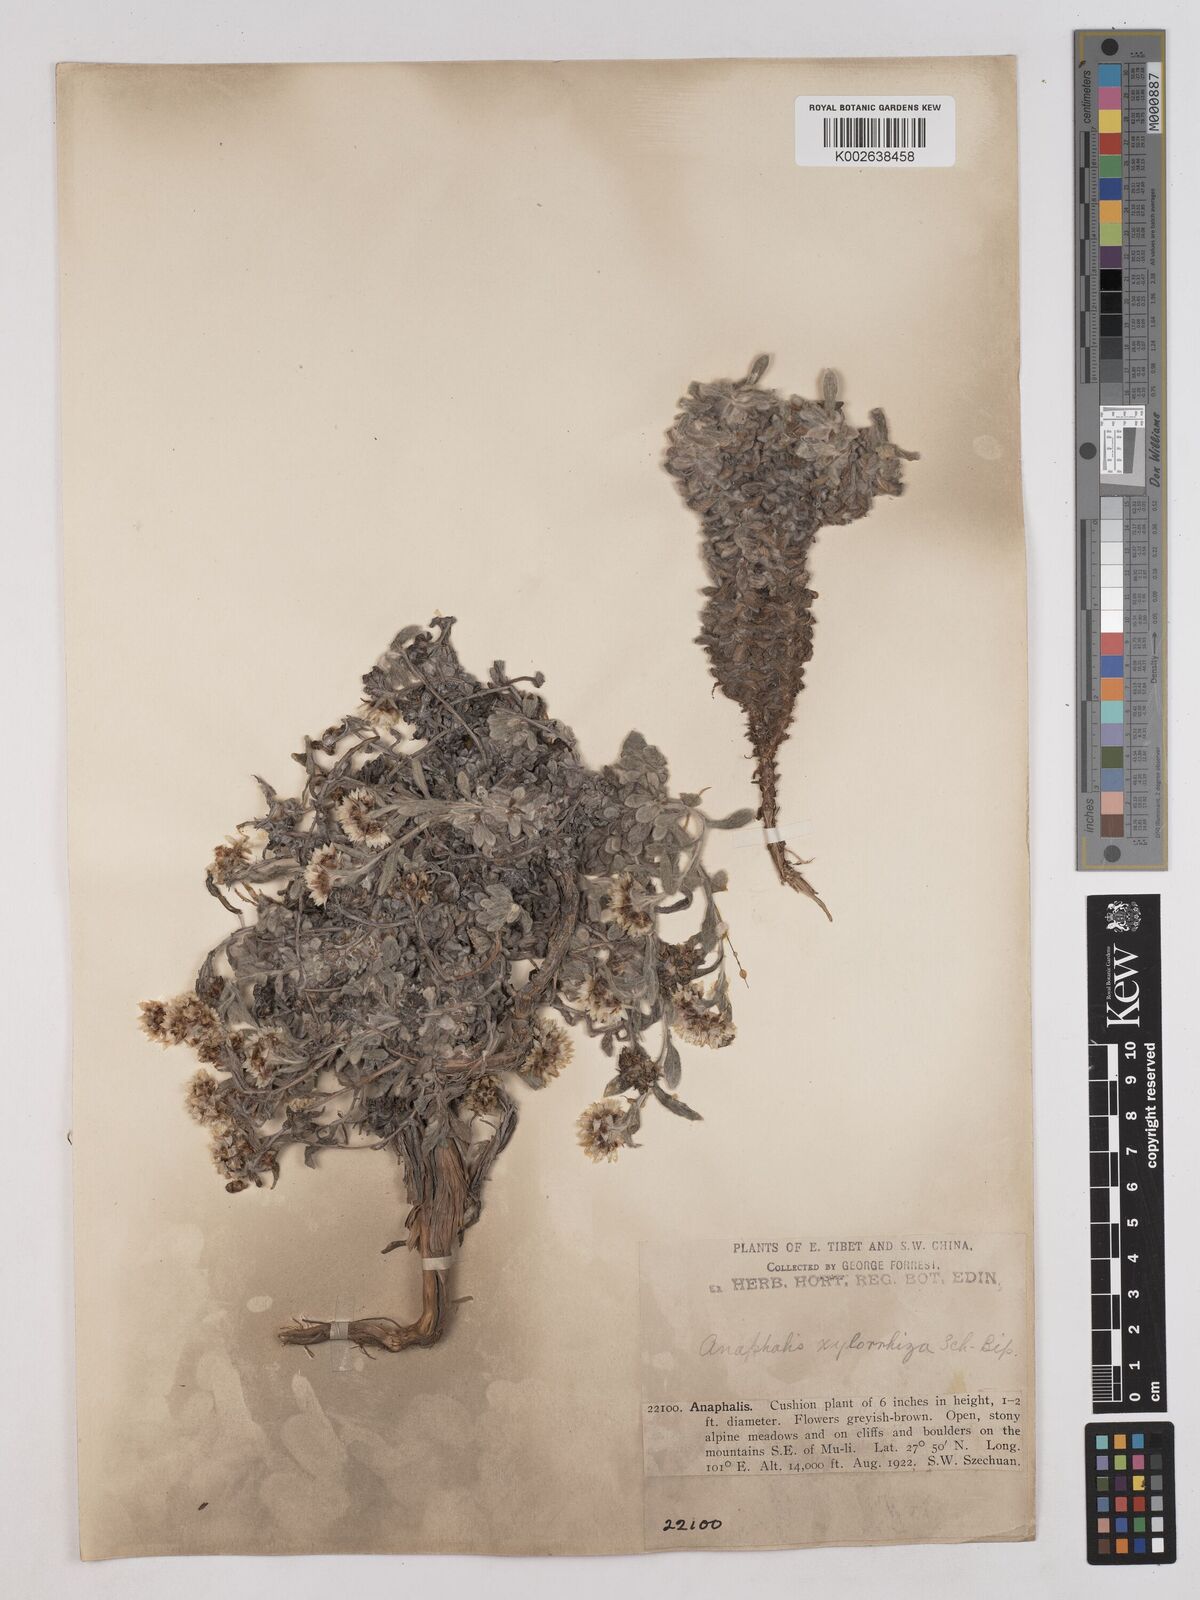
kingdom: Plantae
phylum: Tracheophyta
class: Magnoliopsida
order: Asterales
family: Asteraceae
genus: Anaphalis
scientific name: Anaphalis xylorhiza
